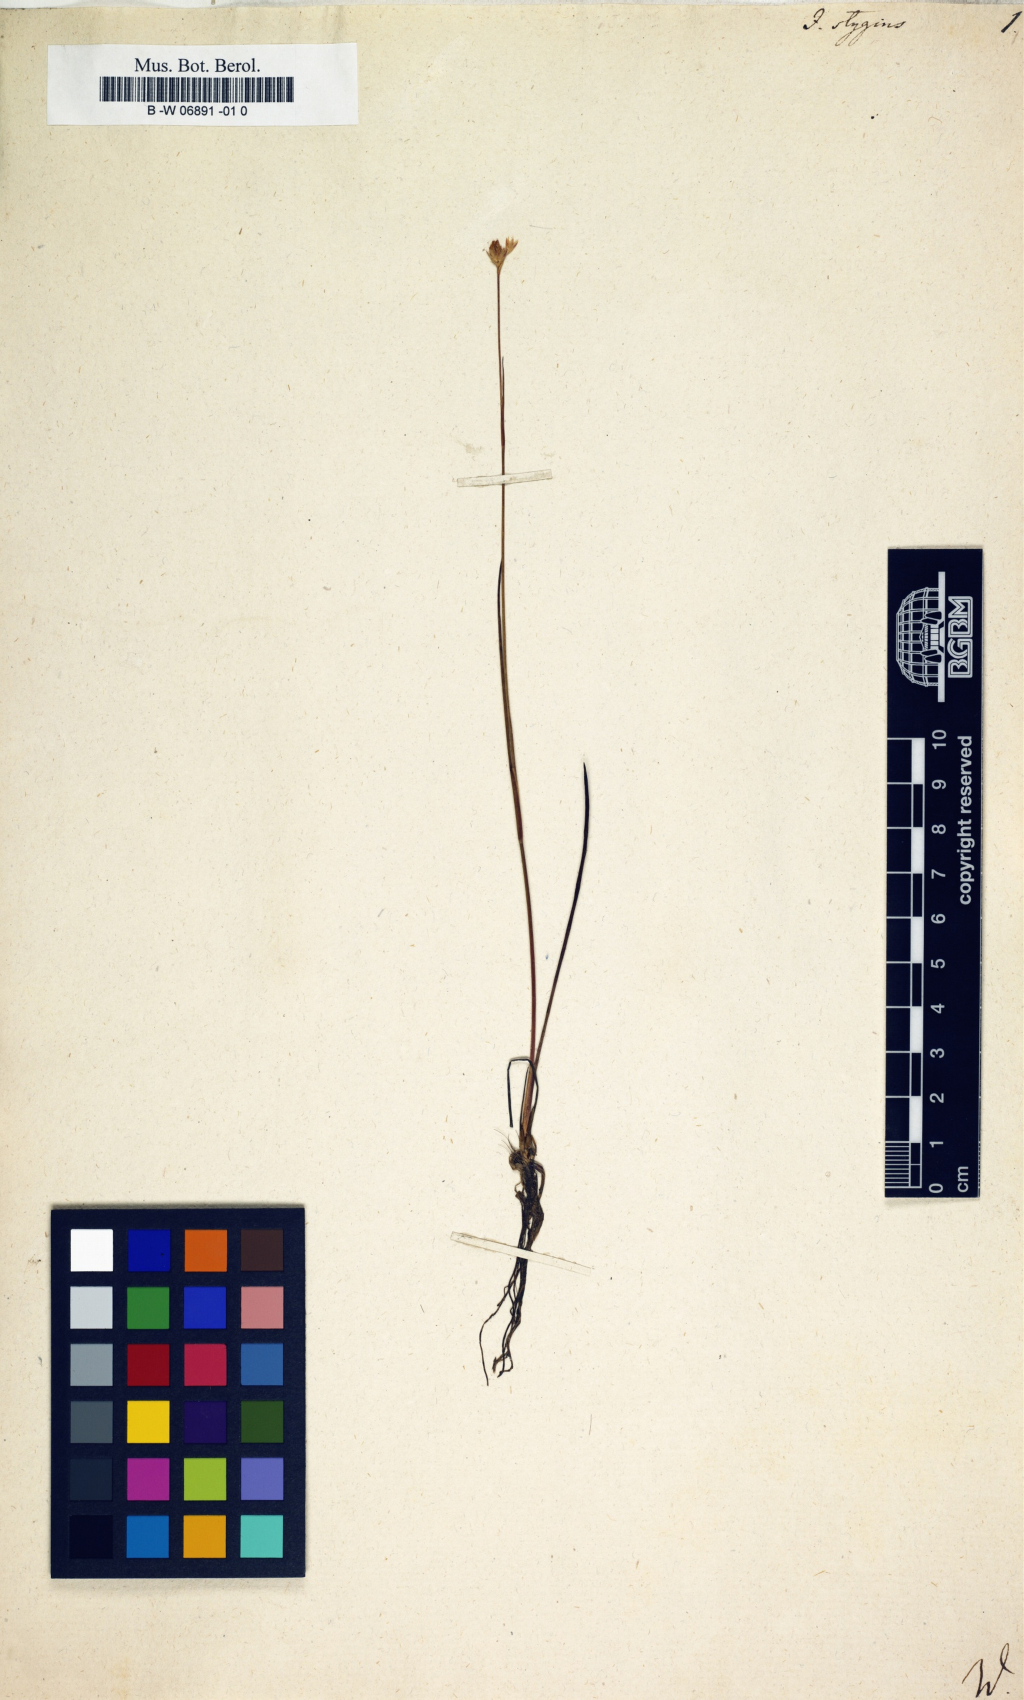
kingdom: Plantae
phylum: Tracheophyta
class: Liliopsida
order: Poales
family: Juncaceae
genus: Juncus
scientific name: Juncus stygius
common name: Bog rush
